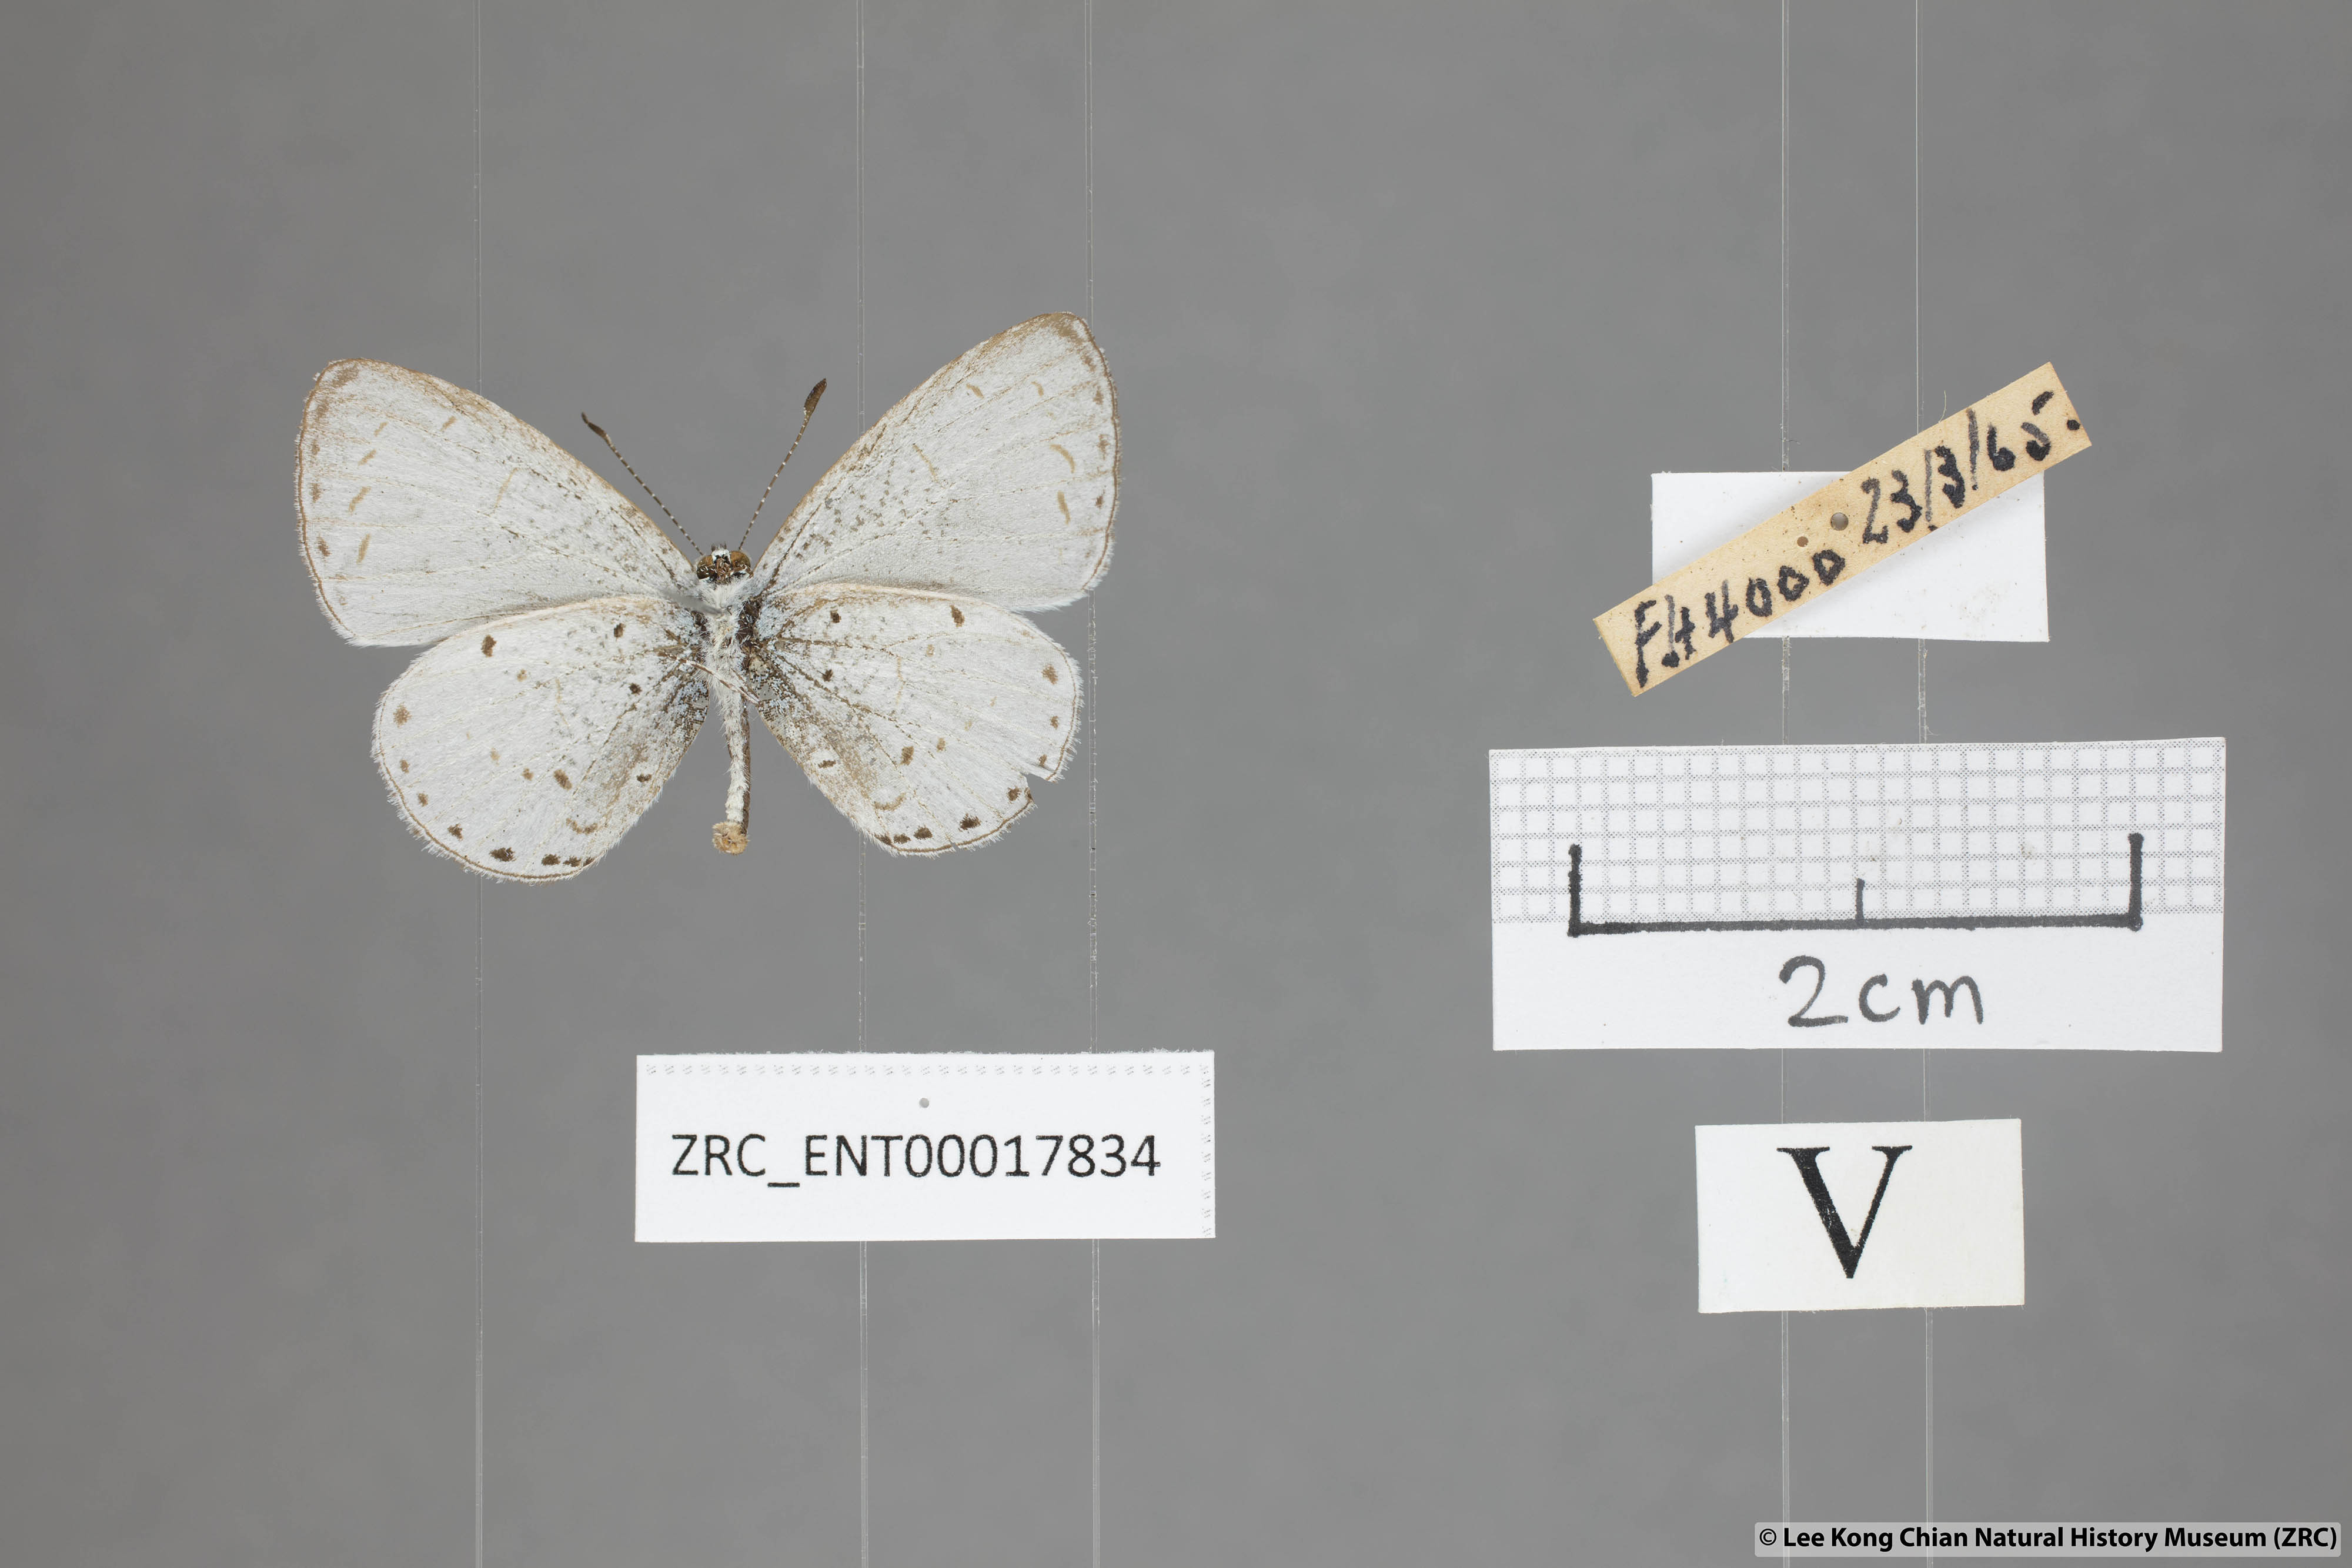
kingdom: Animalia
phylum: Arthropoda
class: Insecta
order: Lepidoptera
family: Lycaenidae
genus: Udara
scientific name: Udara
